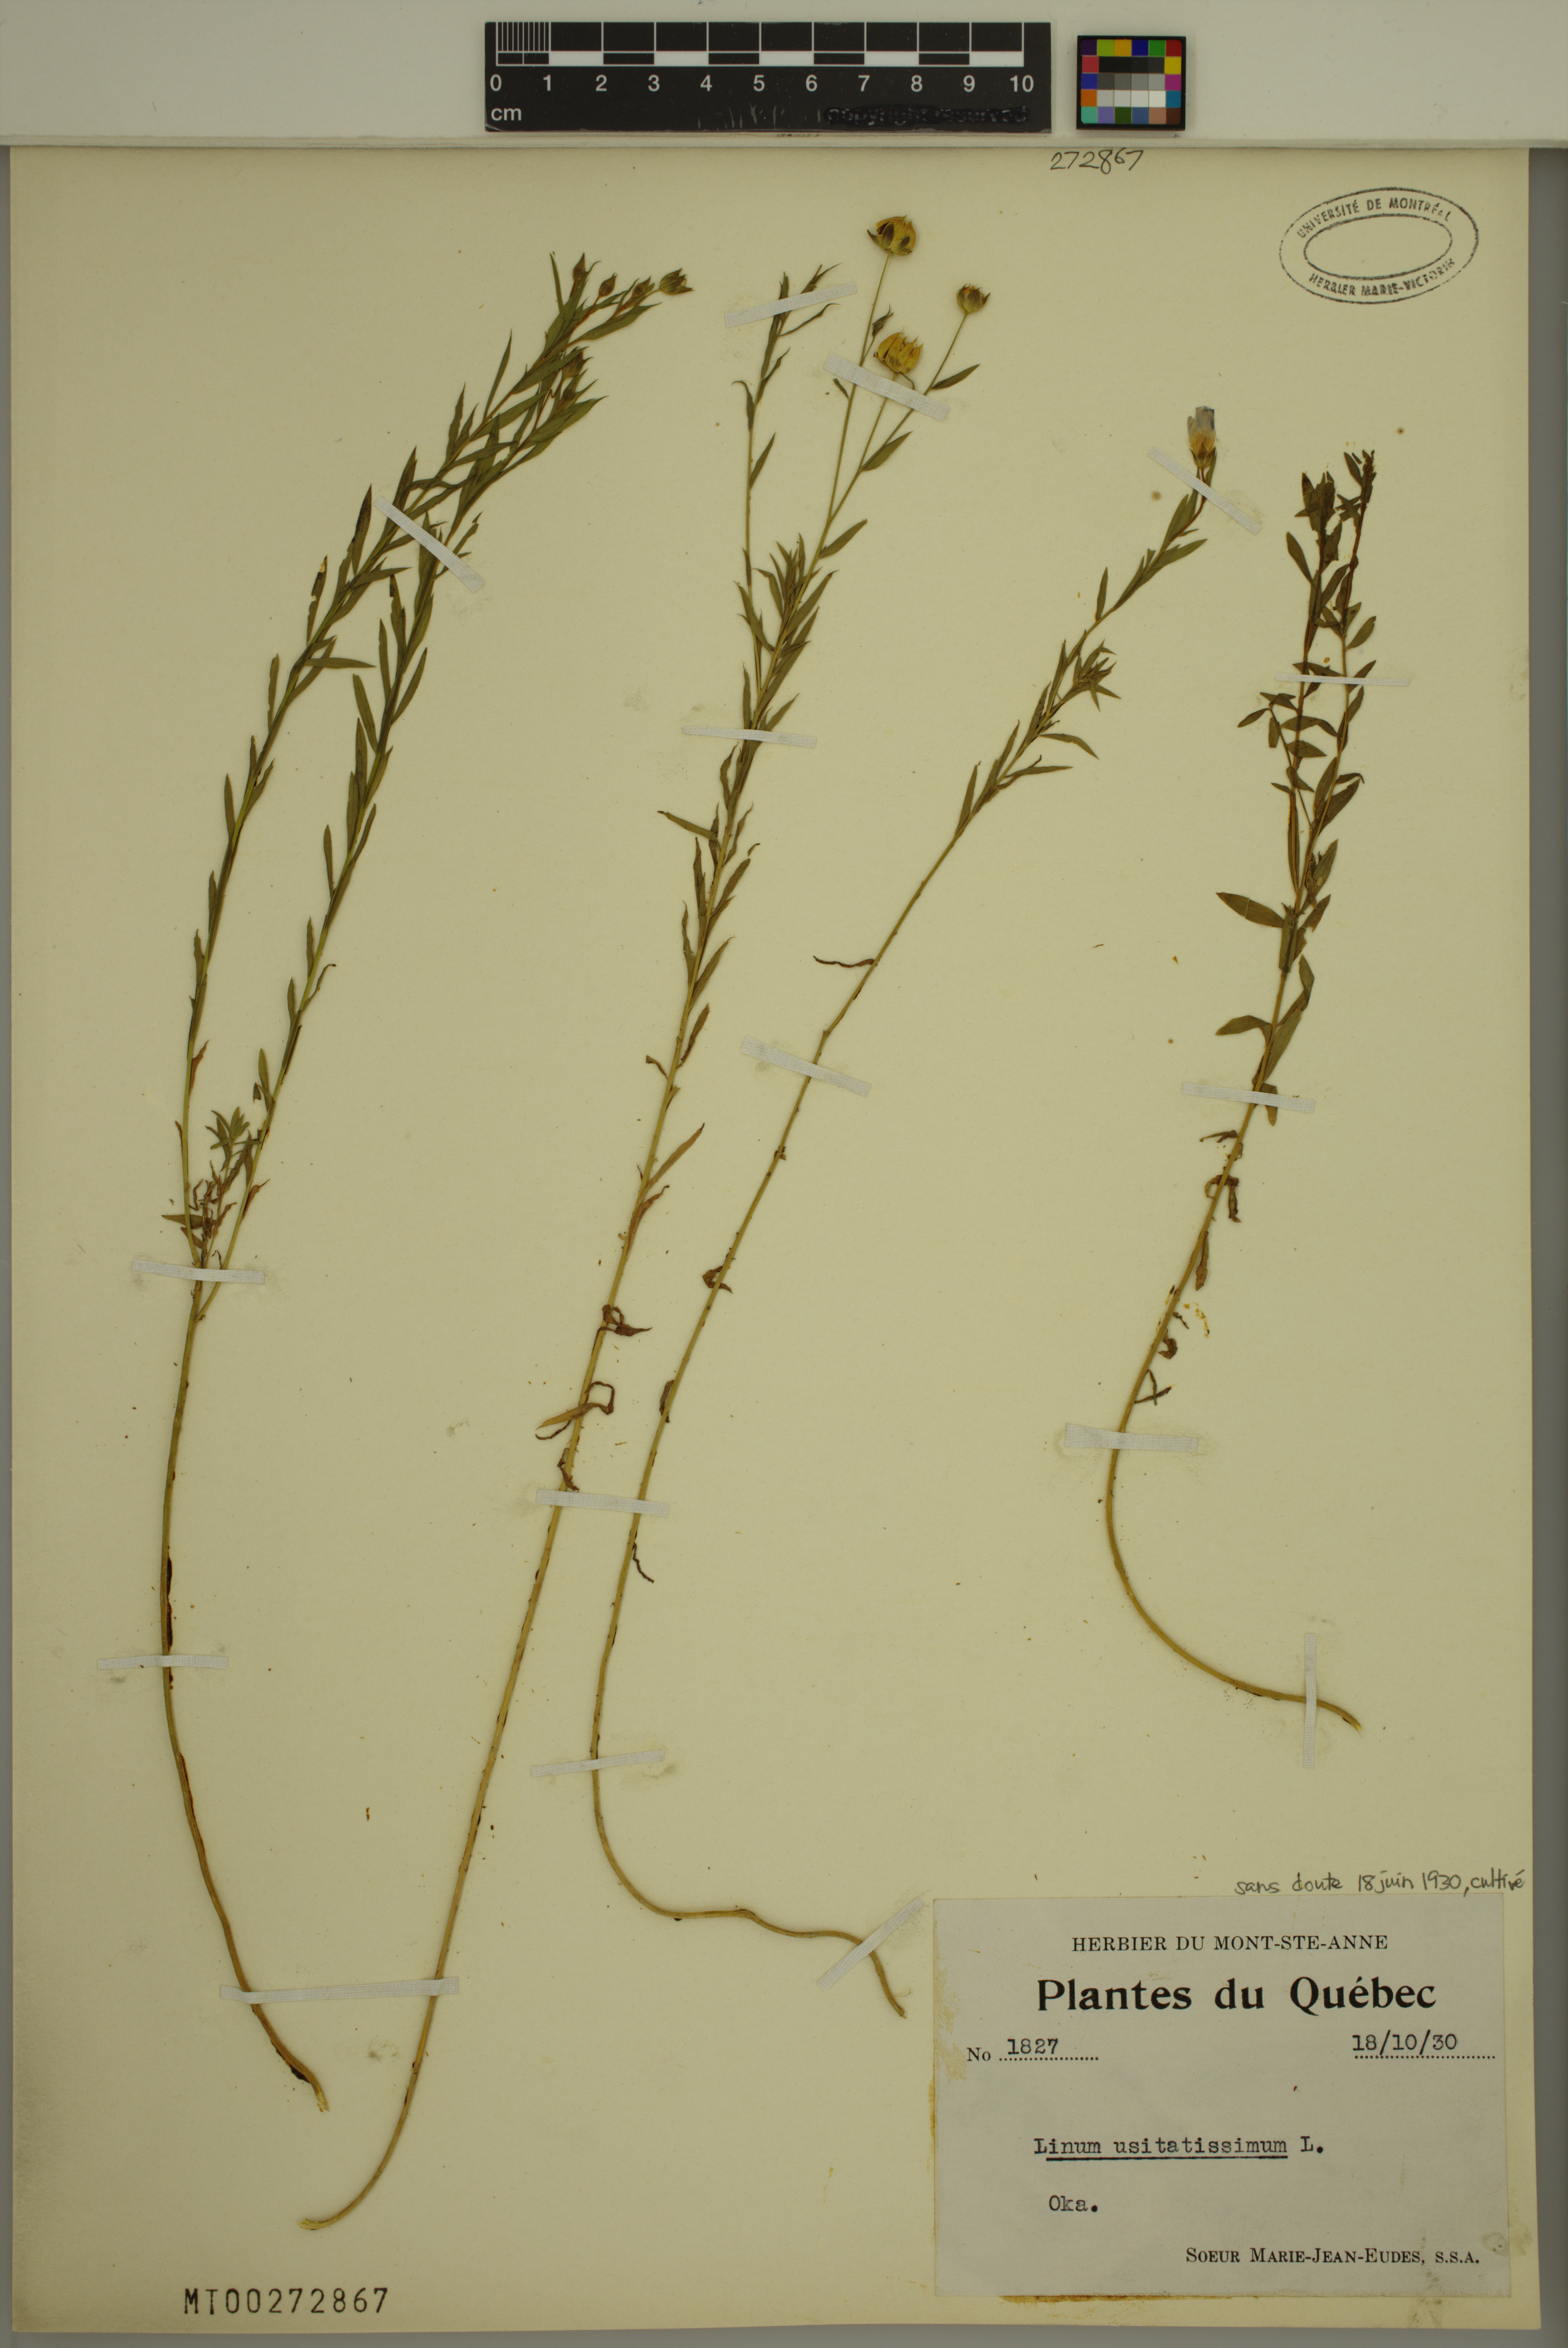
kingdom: Plantae
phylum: Tracheophyta
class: Magnoliopsida
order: Malpighiales
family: Linaceae
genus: Linum
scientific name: Linum usitatissimum
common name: Flax
